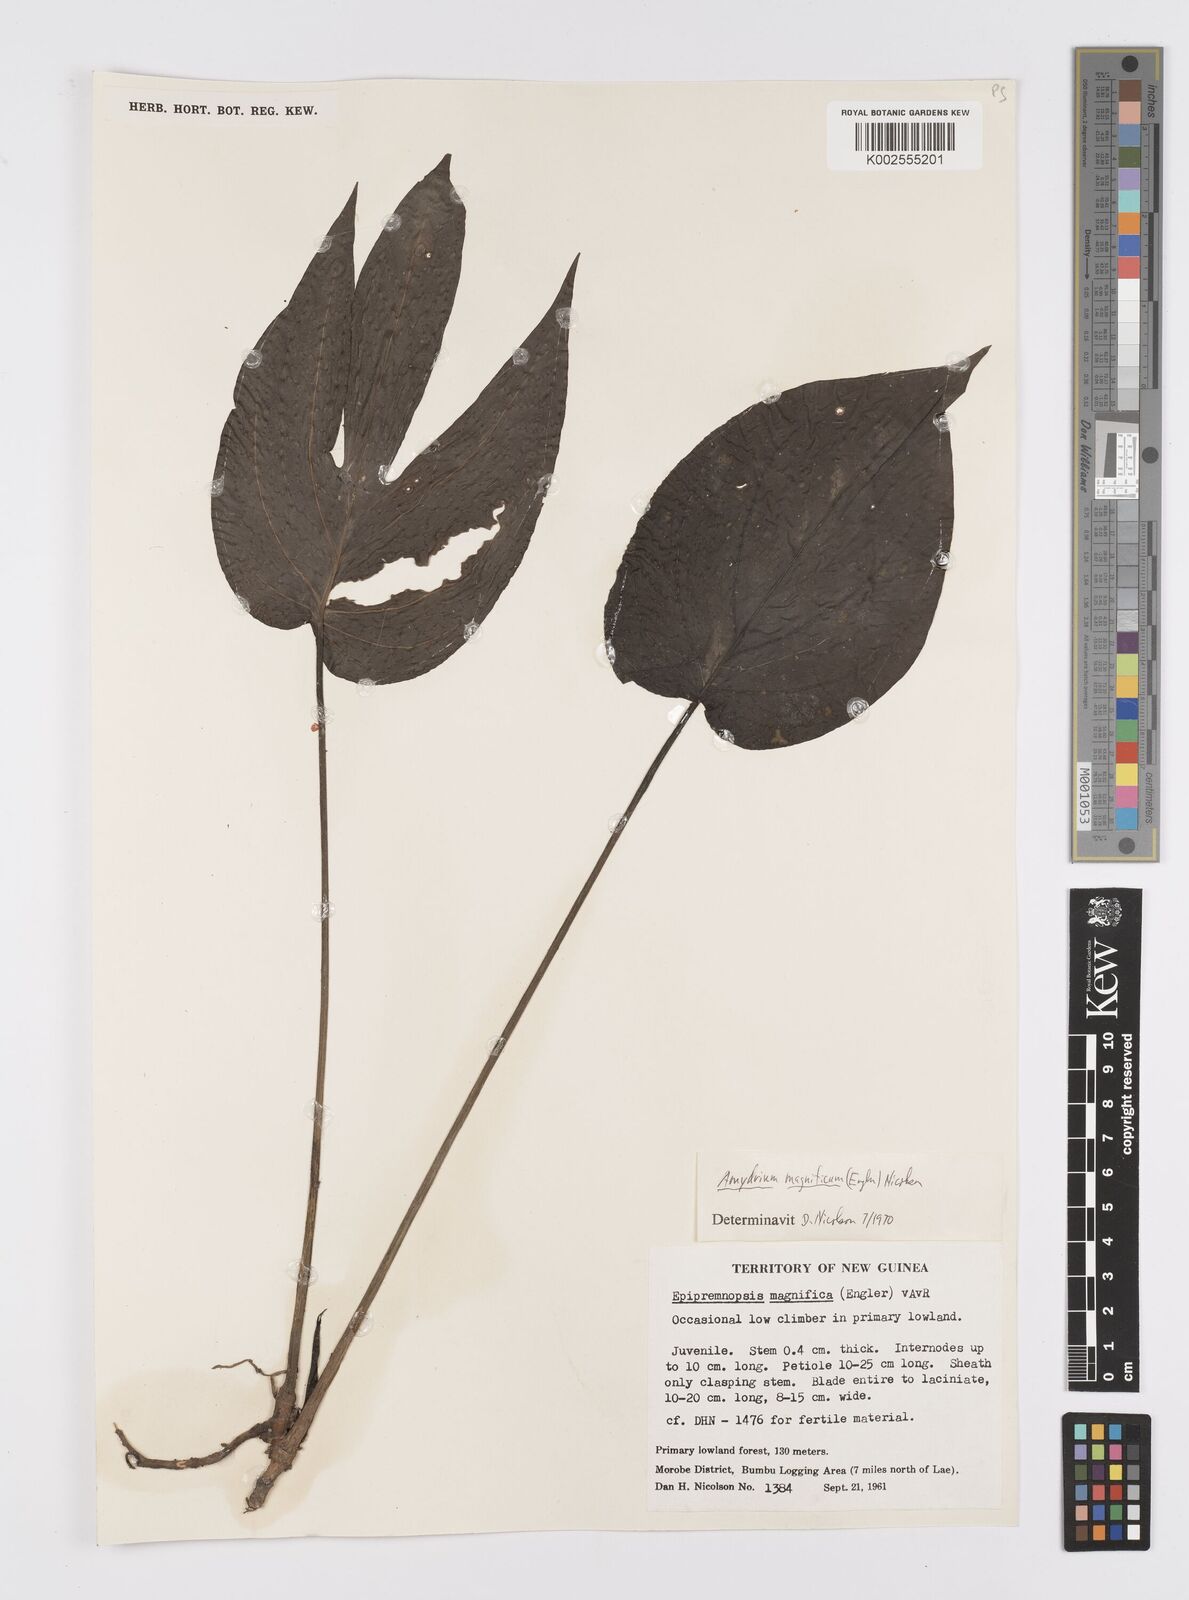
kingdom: Plantae
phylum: Tracheophyta
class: Liliopsida
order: Alismatales
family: Araceae
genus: Amydrium
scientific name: Amydrium zippelianum
